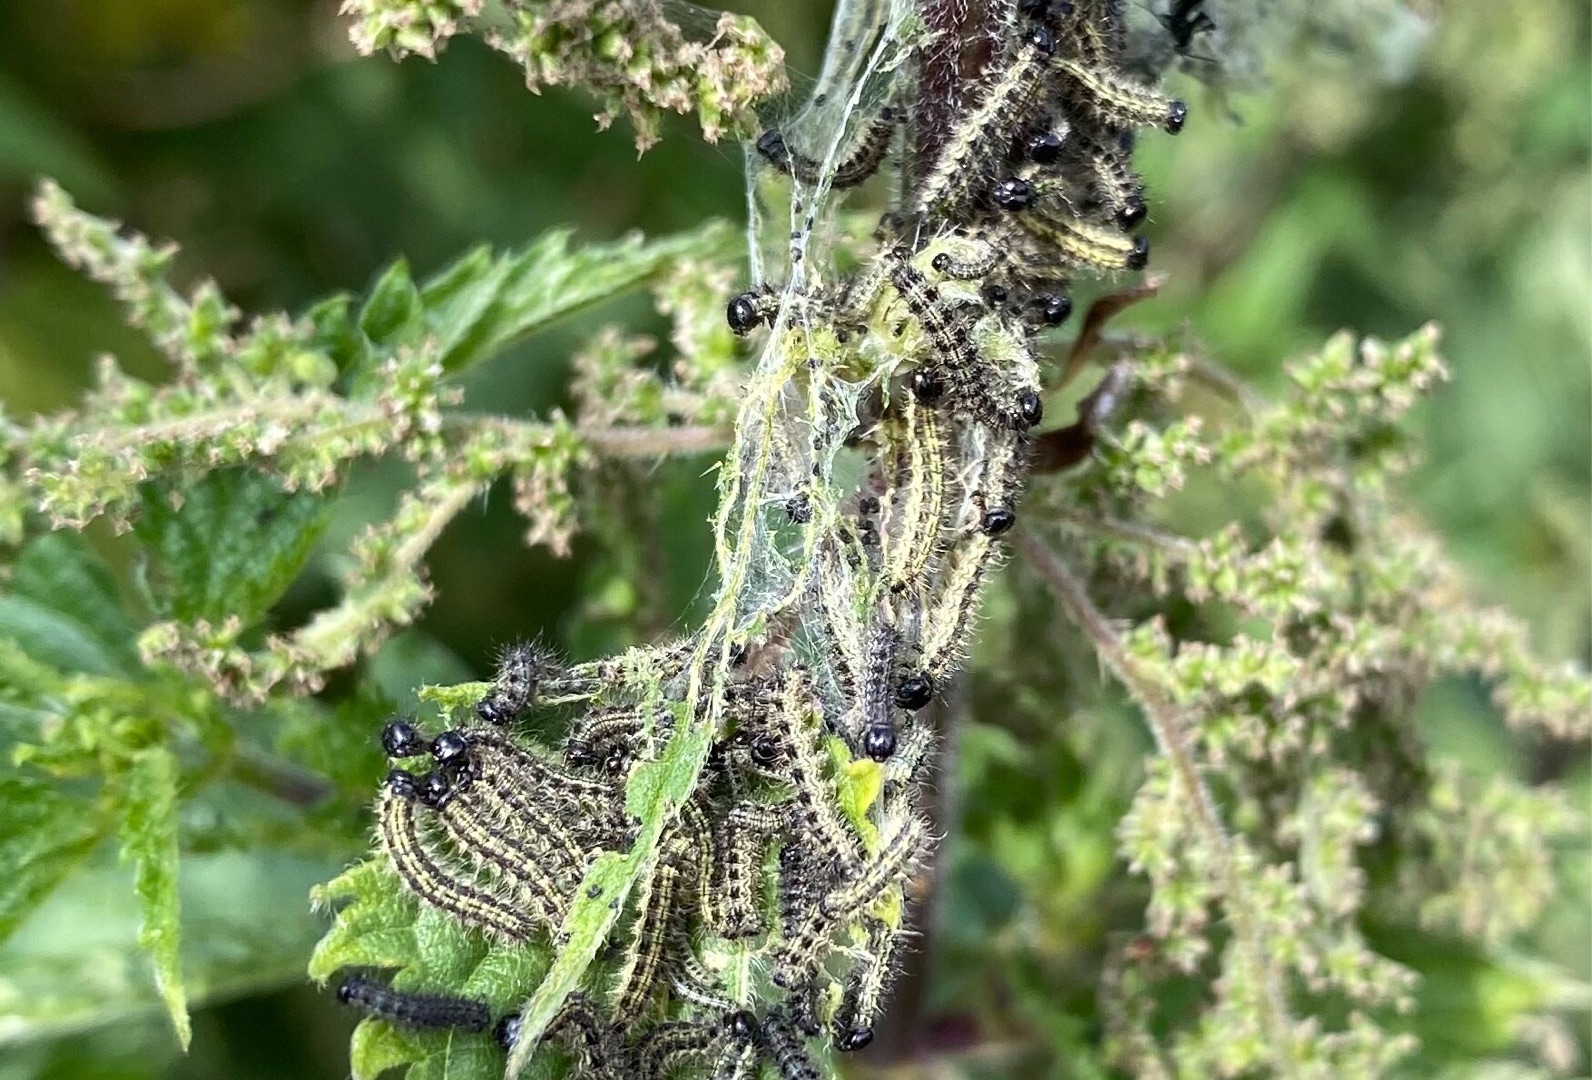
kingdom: Animalia
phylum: Arthropoda
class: Insecta
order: Lepidoptera
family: Nymphalidae
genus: Aglais
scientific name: Aglais urticae
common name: Nældens takvinge
